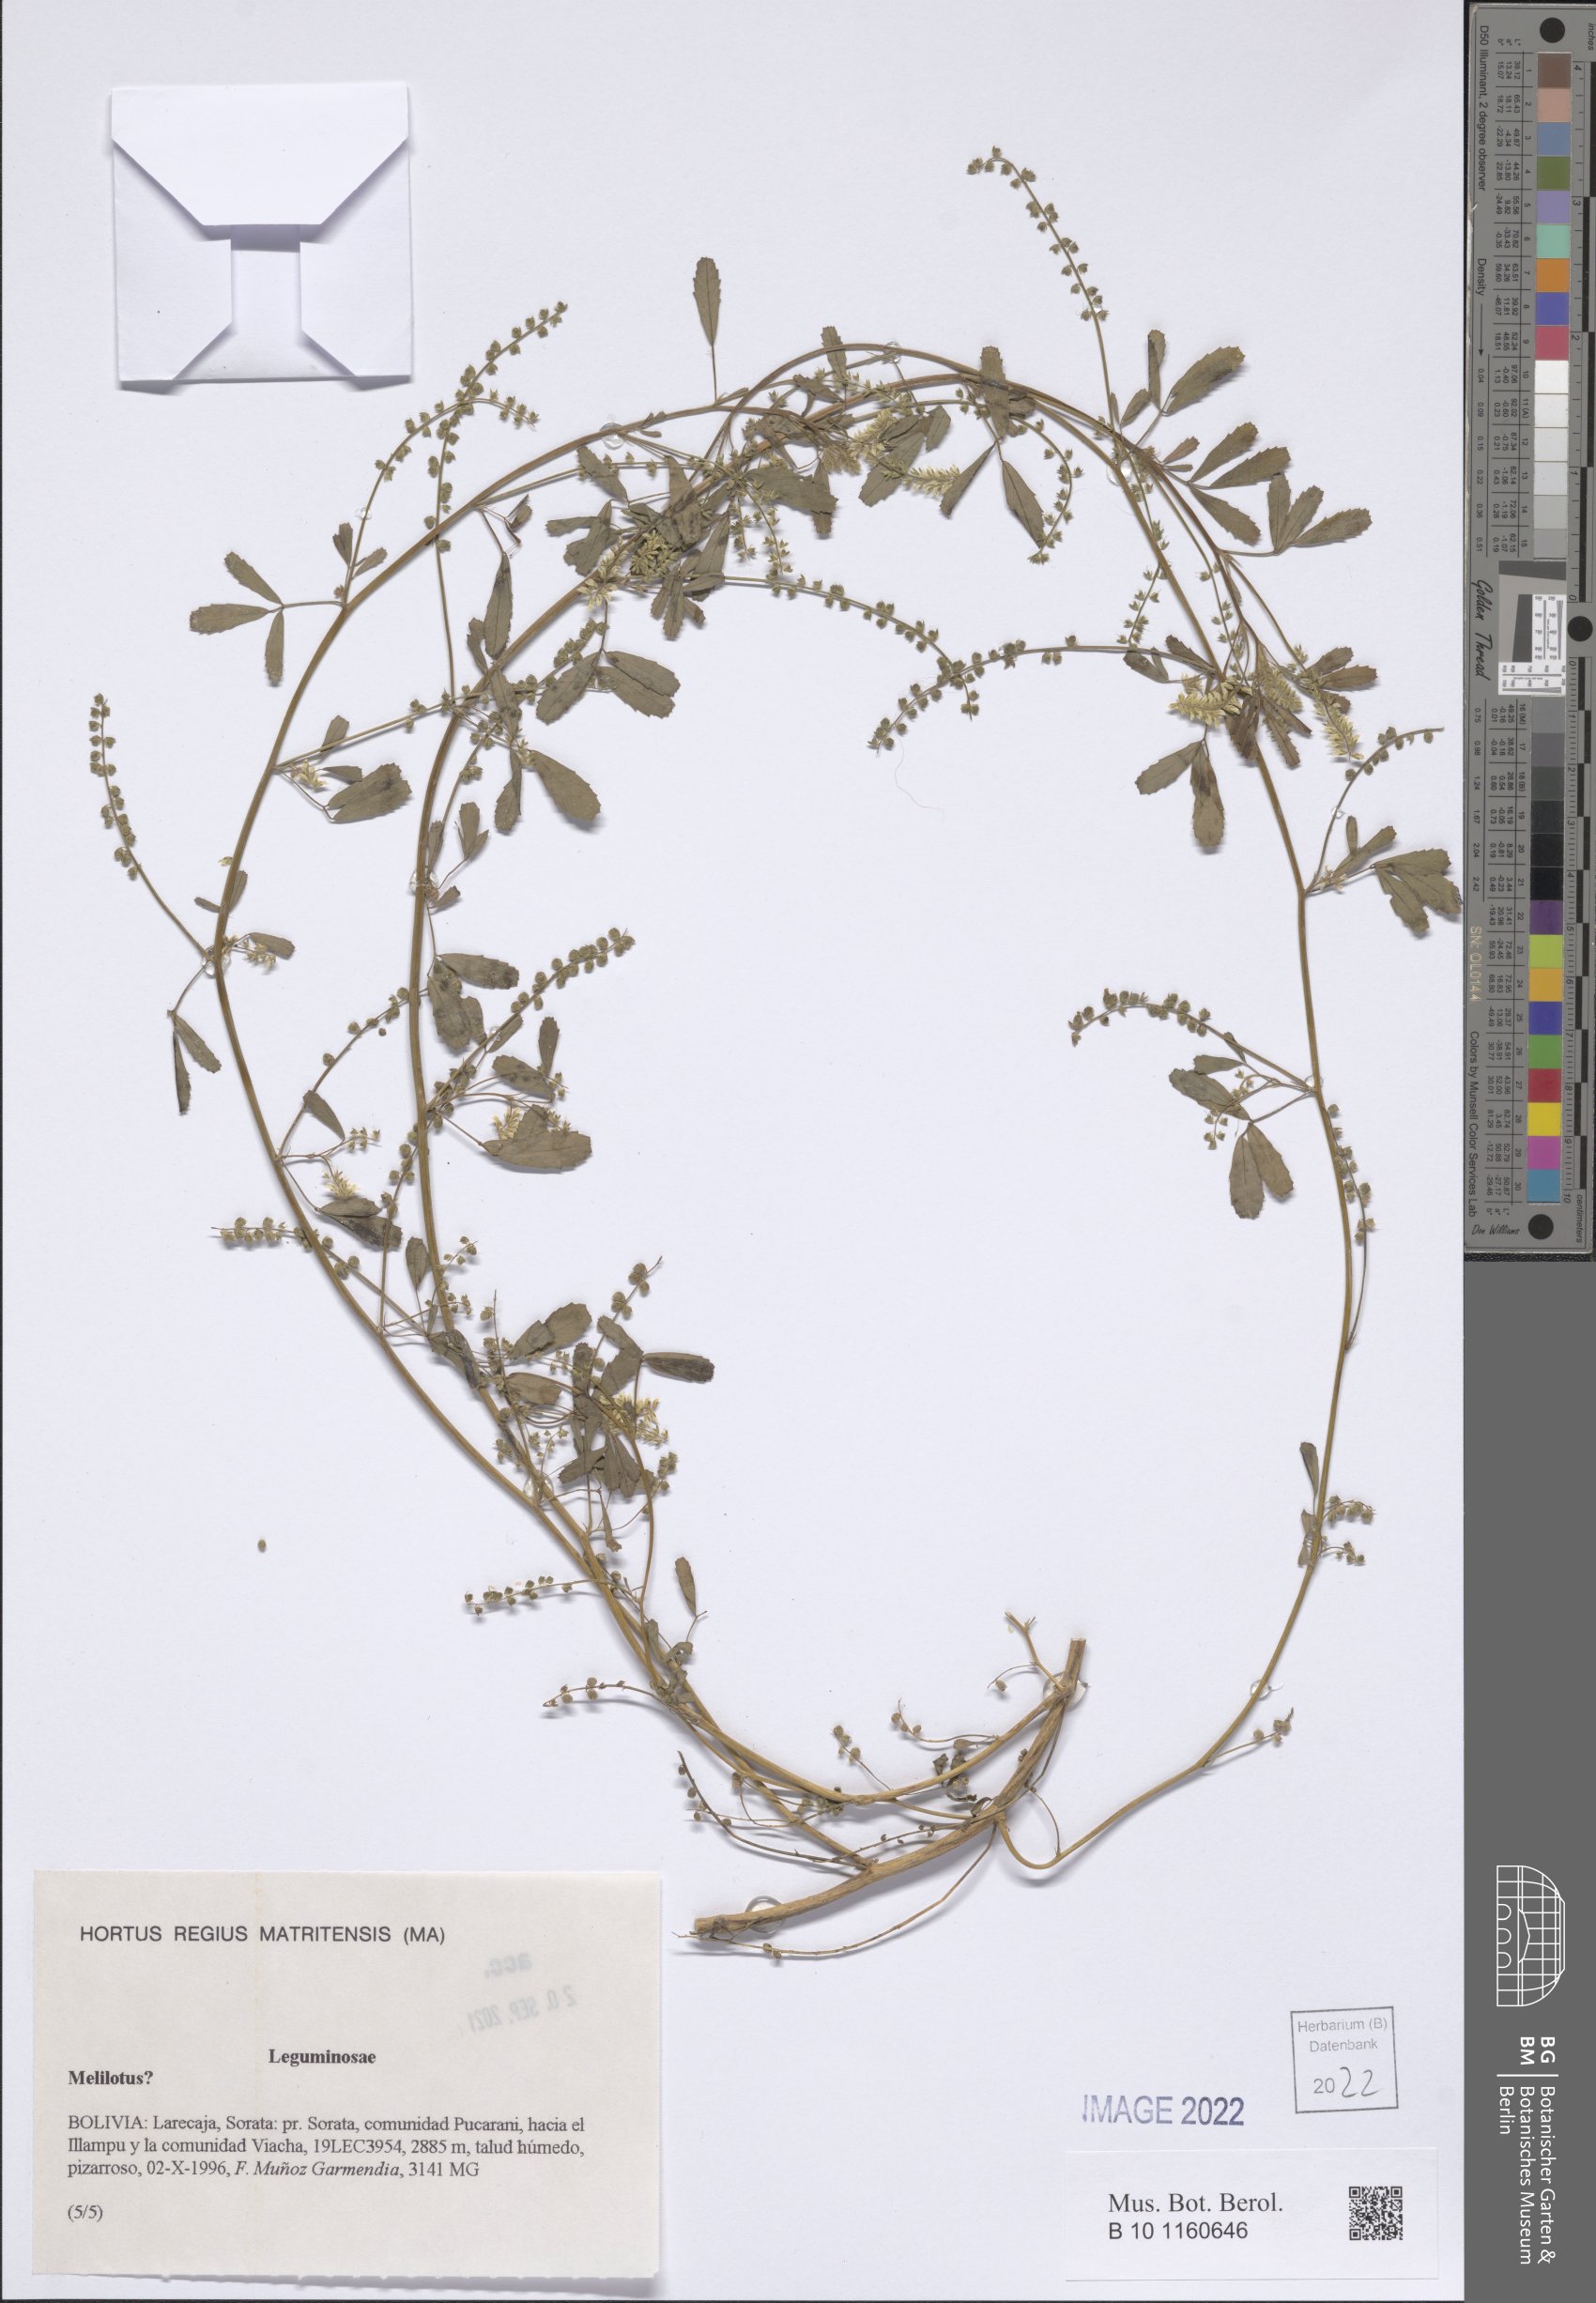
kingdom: Plantae
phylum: Tracheophyta
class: Magnoliopsida
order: Fabales
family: Fabaceae
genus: Melilotus
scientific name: Melilotus
